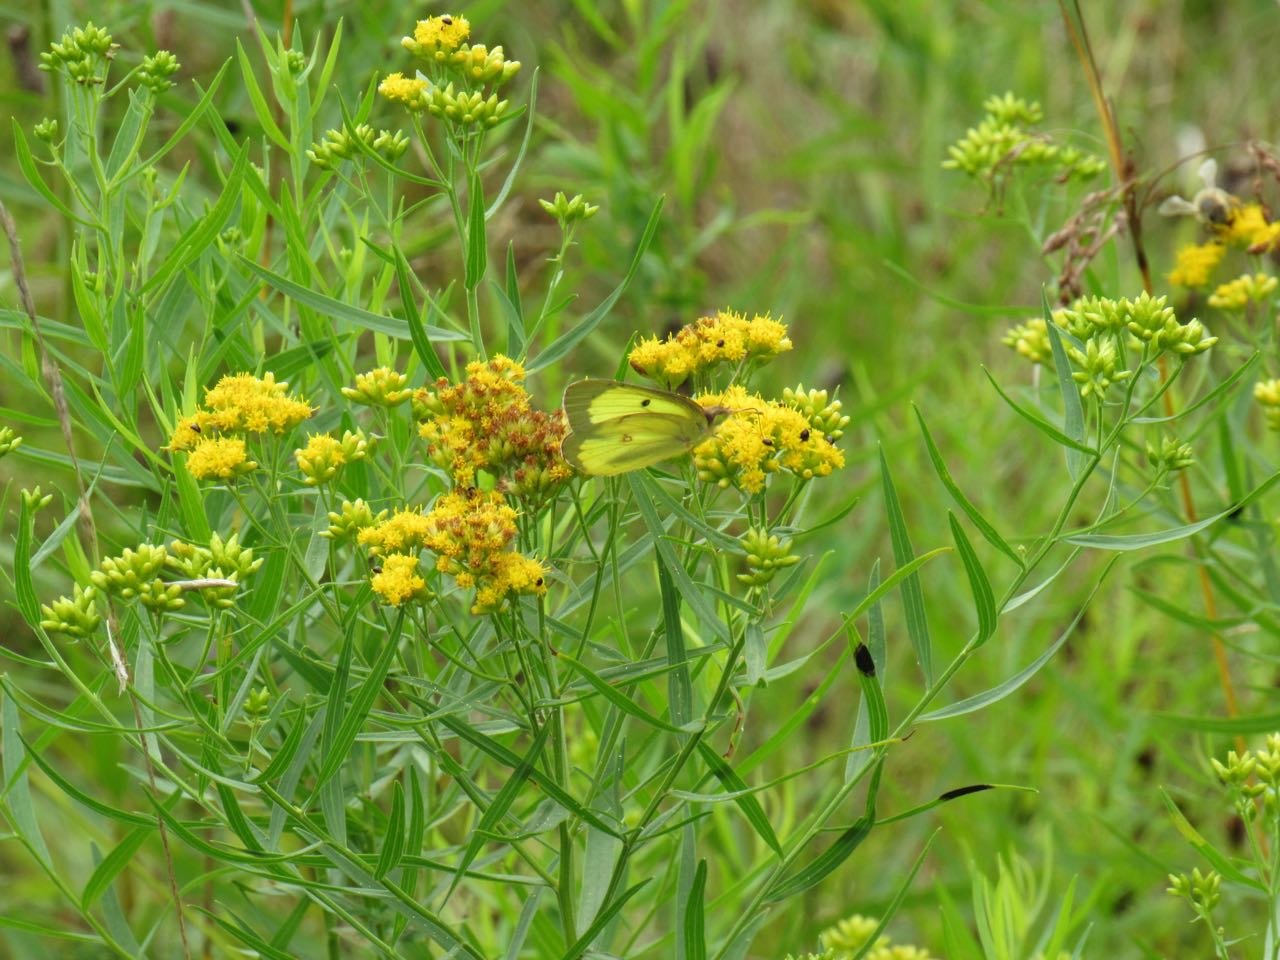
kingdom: Animalia
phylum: Arthropoda
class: Insecta
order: Lepidoptera
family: Pieridae
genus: Colias
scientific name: Colias philodice
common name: Clouded Sulphur
